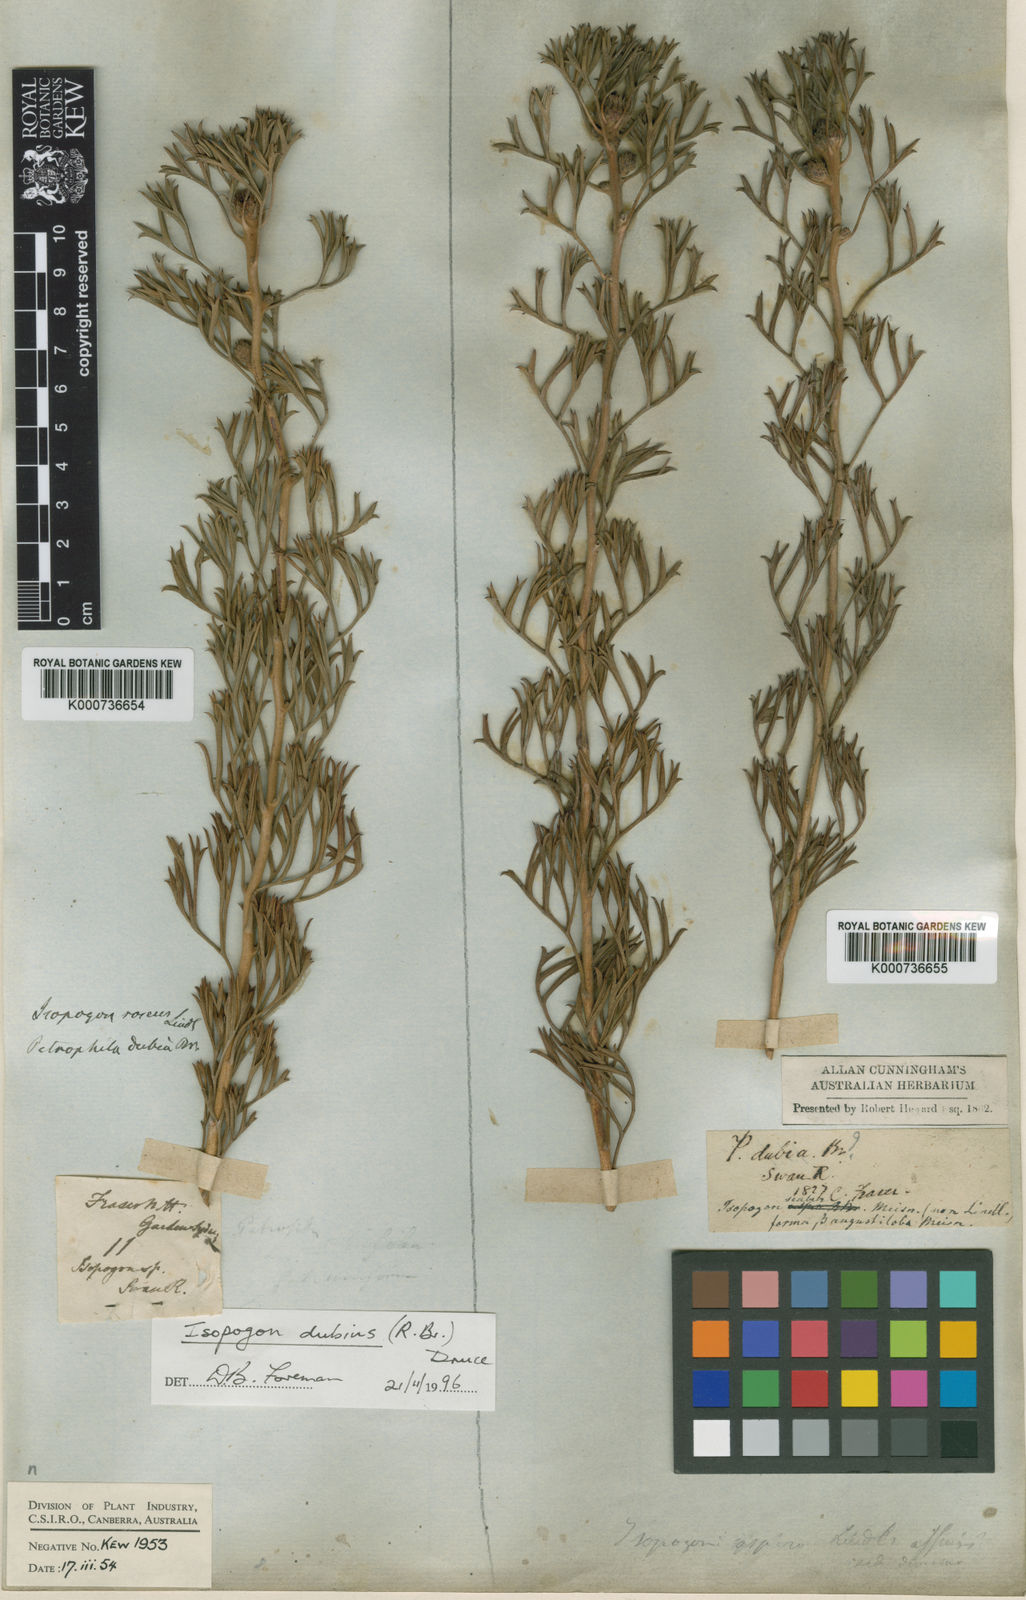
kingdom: Plantae
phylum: Tracheophyta
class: Magnoliopsida
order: Proteales
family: Proteaceae
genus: Isopogon
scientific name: Isopogon dubius
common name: Pincushion-coneflower
